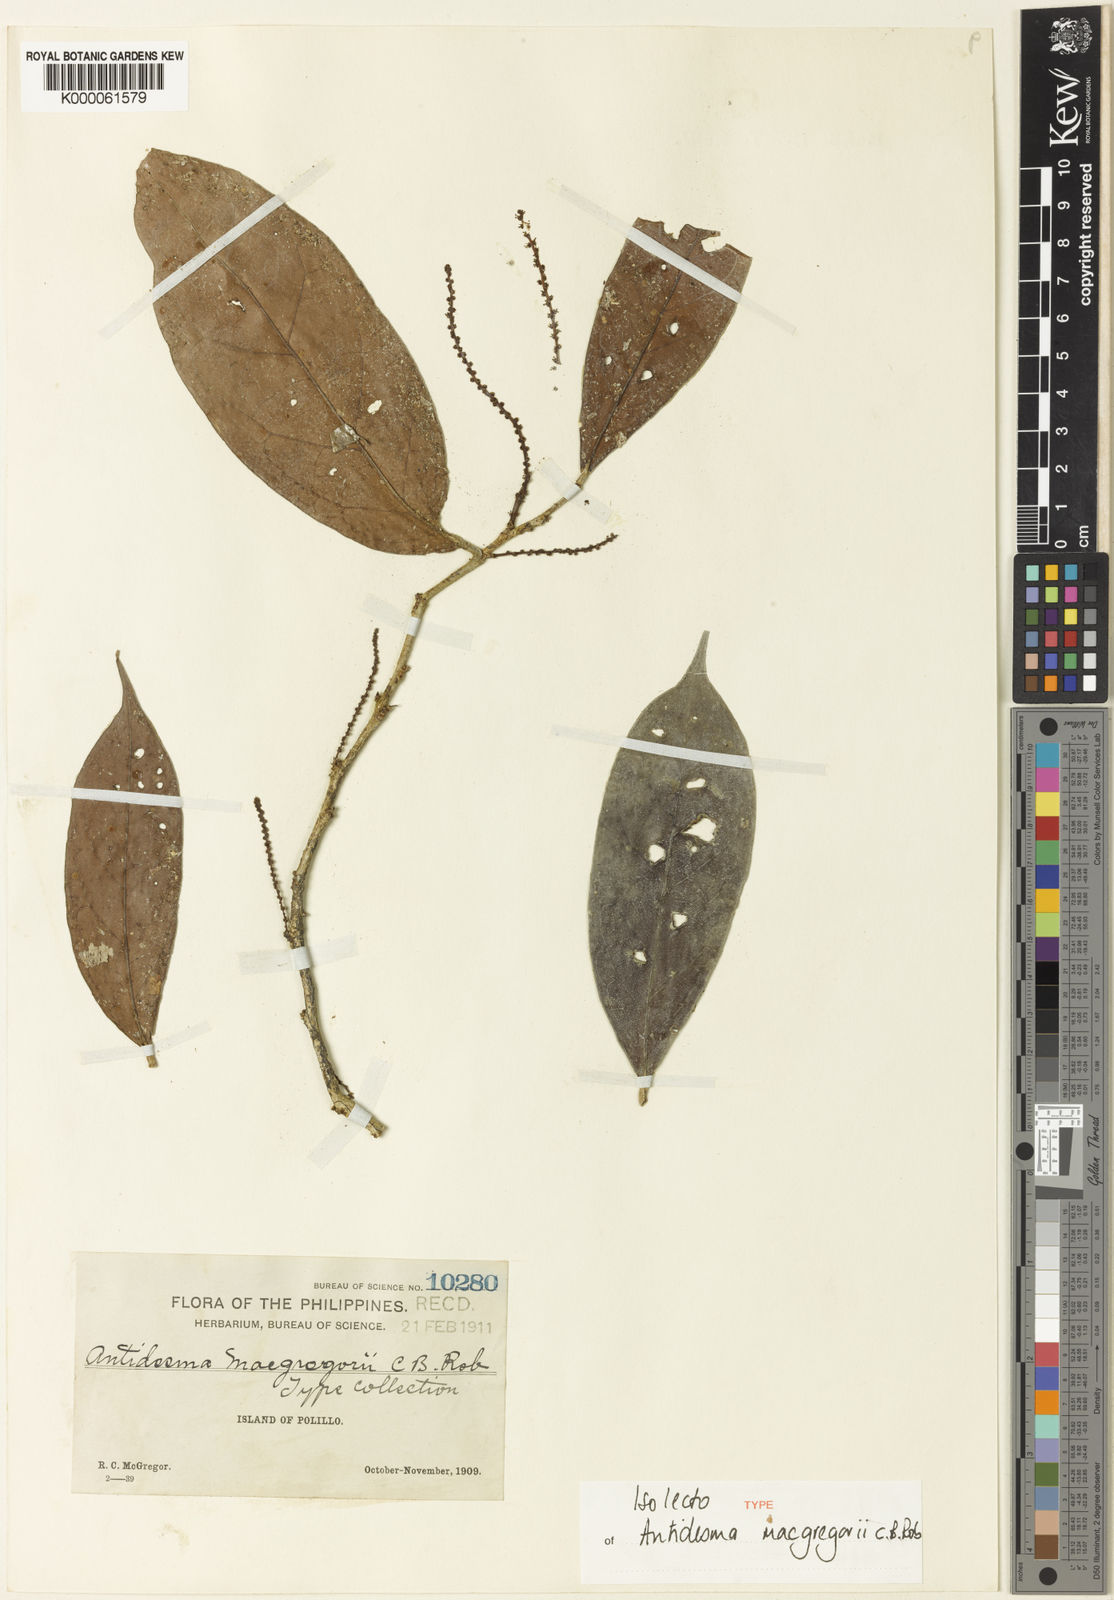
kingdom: Plantae
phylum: Tracheophyta
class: Magnoliopsida
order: Malpighiales
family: Phyllanthaceae
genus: Antidesma
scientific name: Antidesma macgregorii
